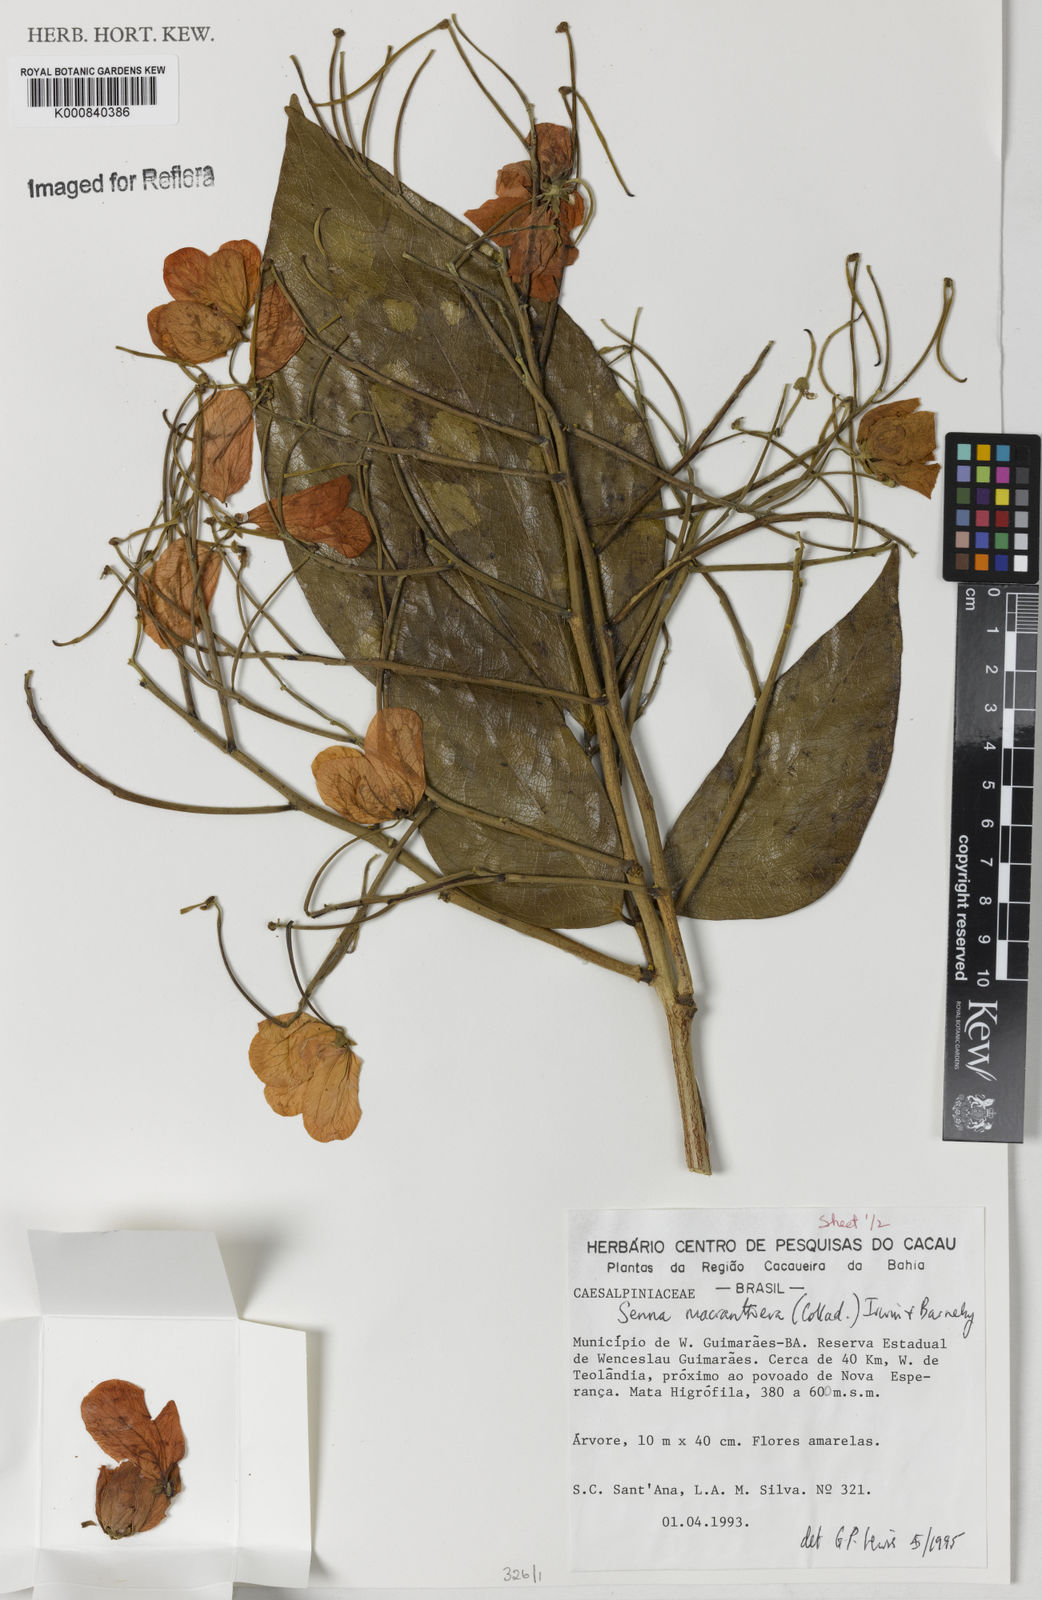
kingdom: Plantae
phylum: Tracheophyta
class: Magnoliopsida
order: Fabales
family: Fabaceae
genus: Senna
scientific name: Senna macranthera
